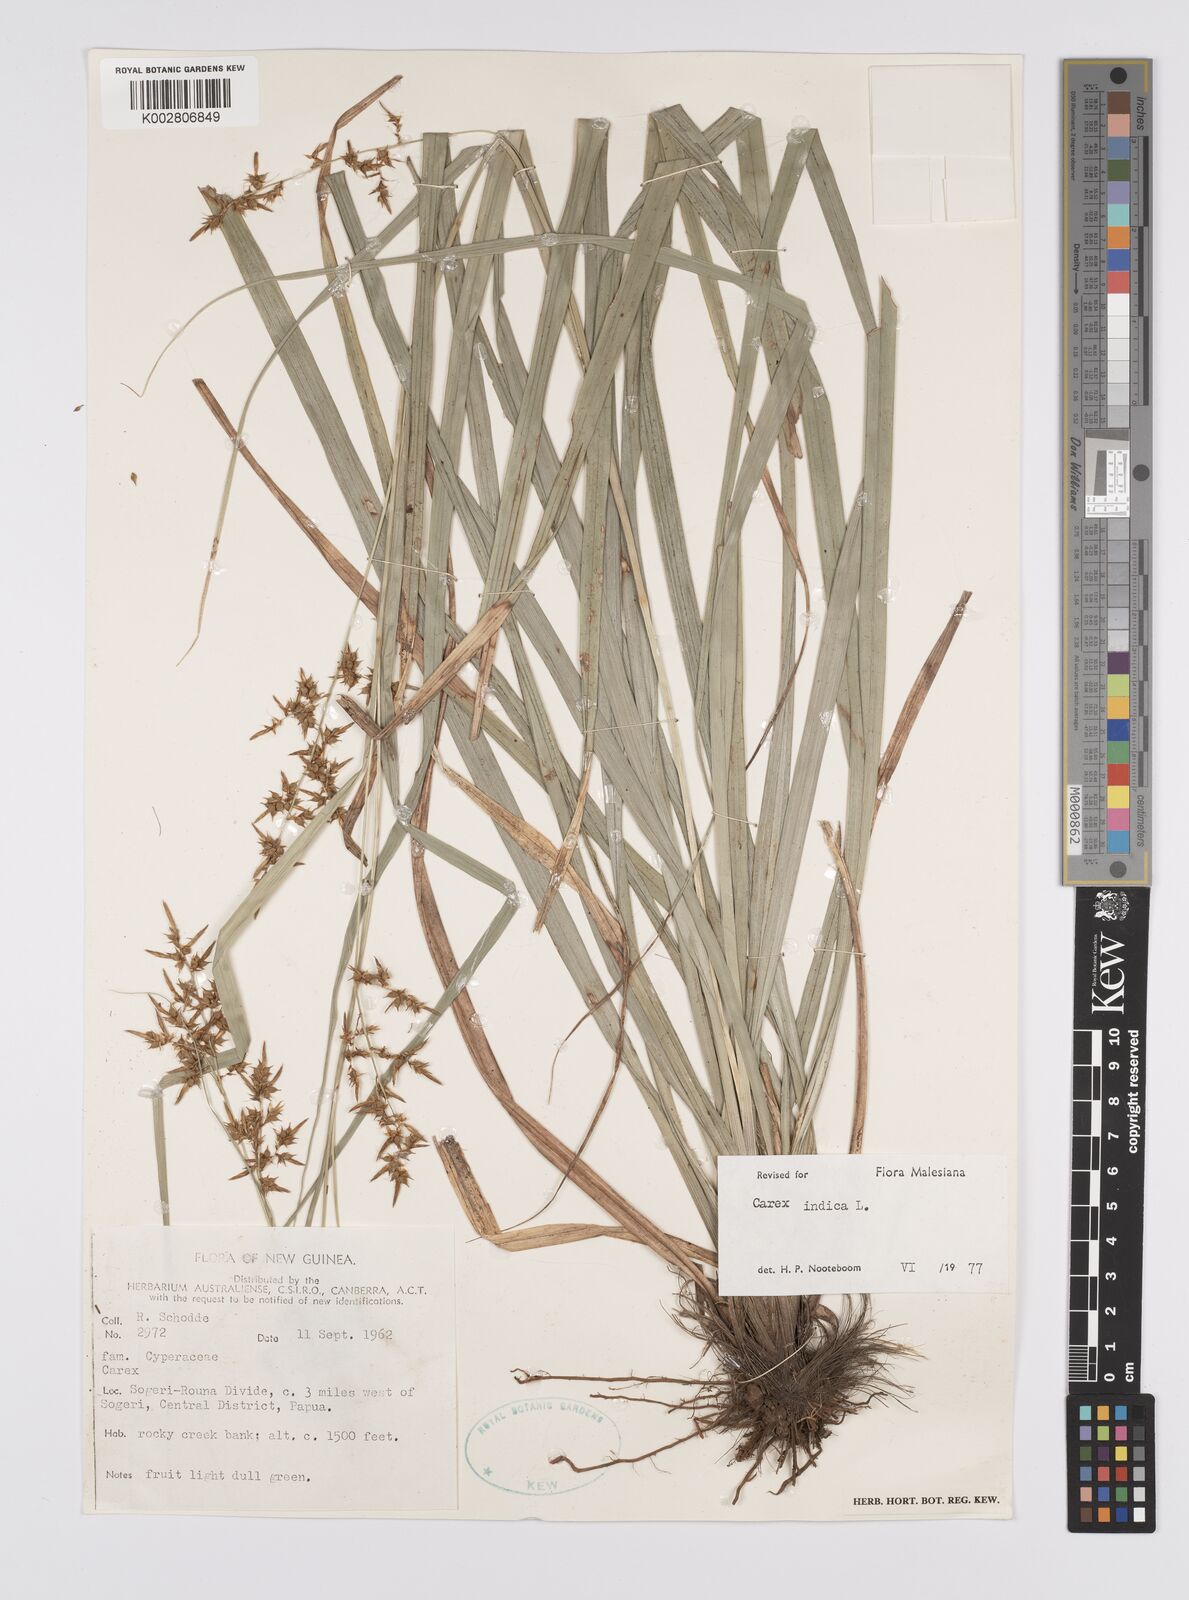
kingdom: Plantae
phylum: Tracheophyta
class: Liliopsida
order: Poales
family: Cyperaceae
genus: Carex
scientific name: Carex indica
